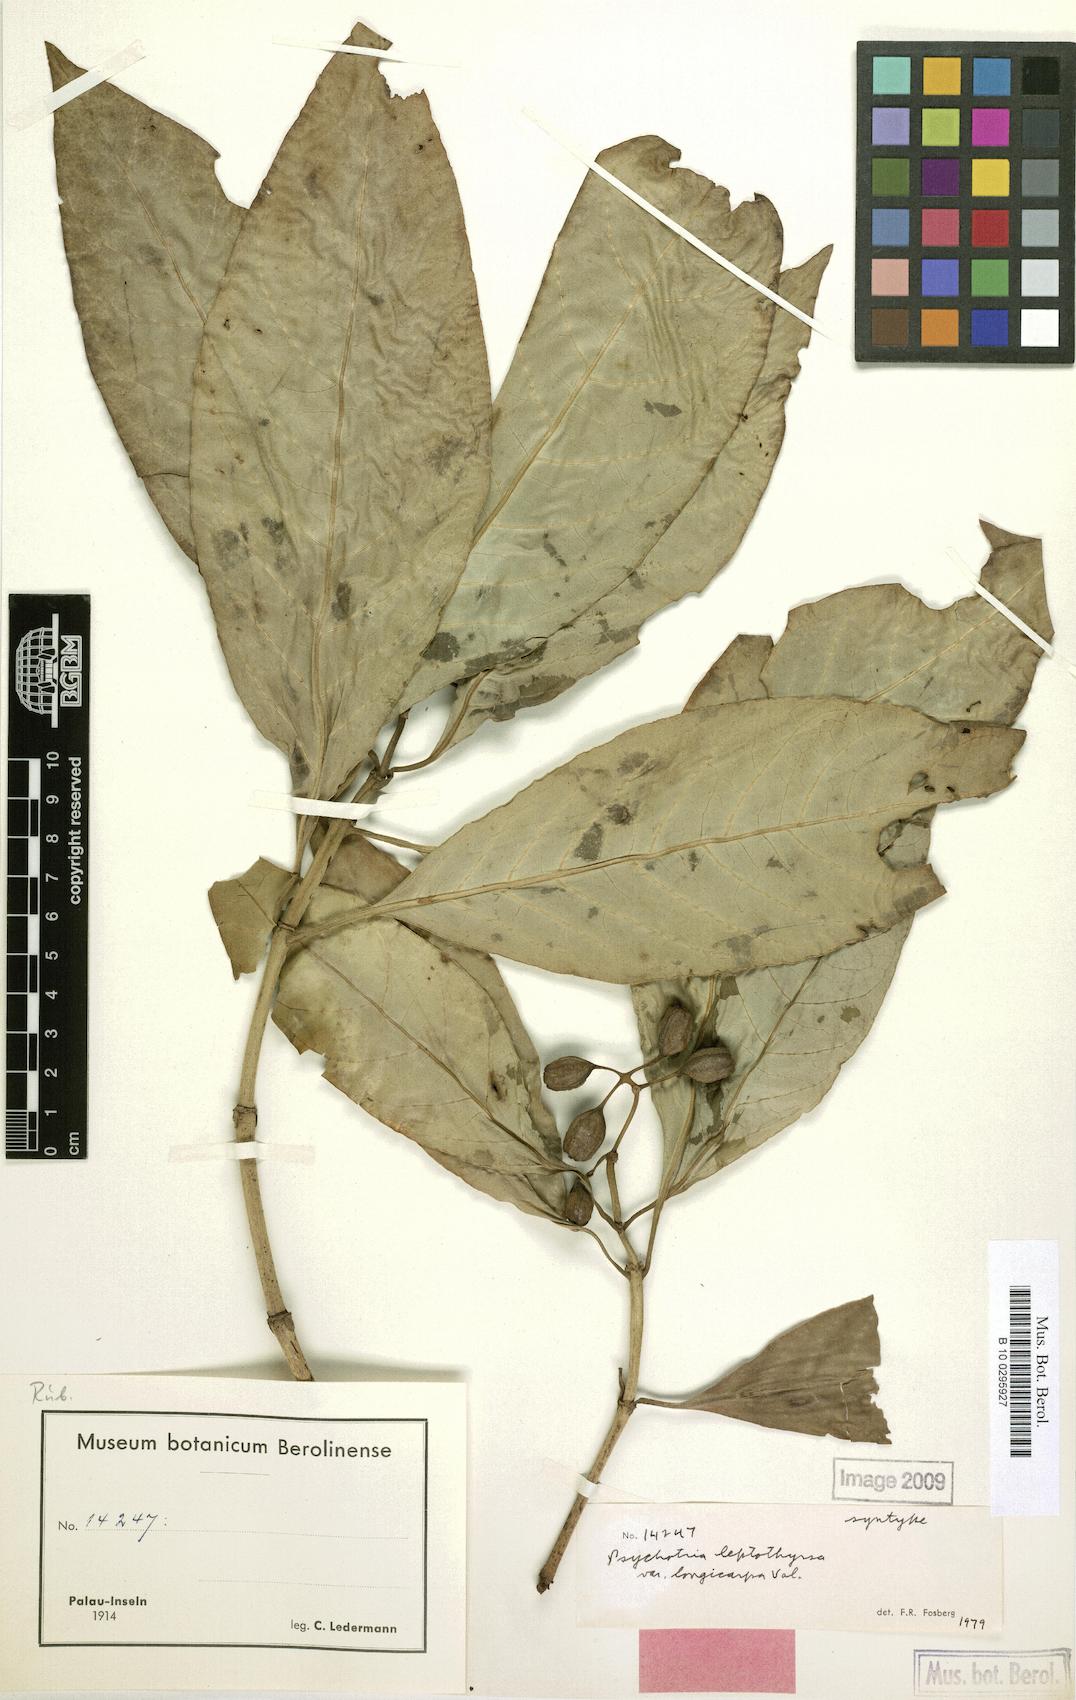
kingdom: Plantae
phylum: Tracheophyta
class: Magnoliopsida
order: Gentianales
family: Rubiaceae
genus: Eumachia
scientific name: Eumachia leptothyrsa
